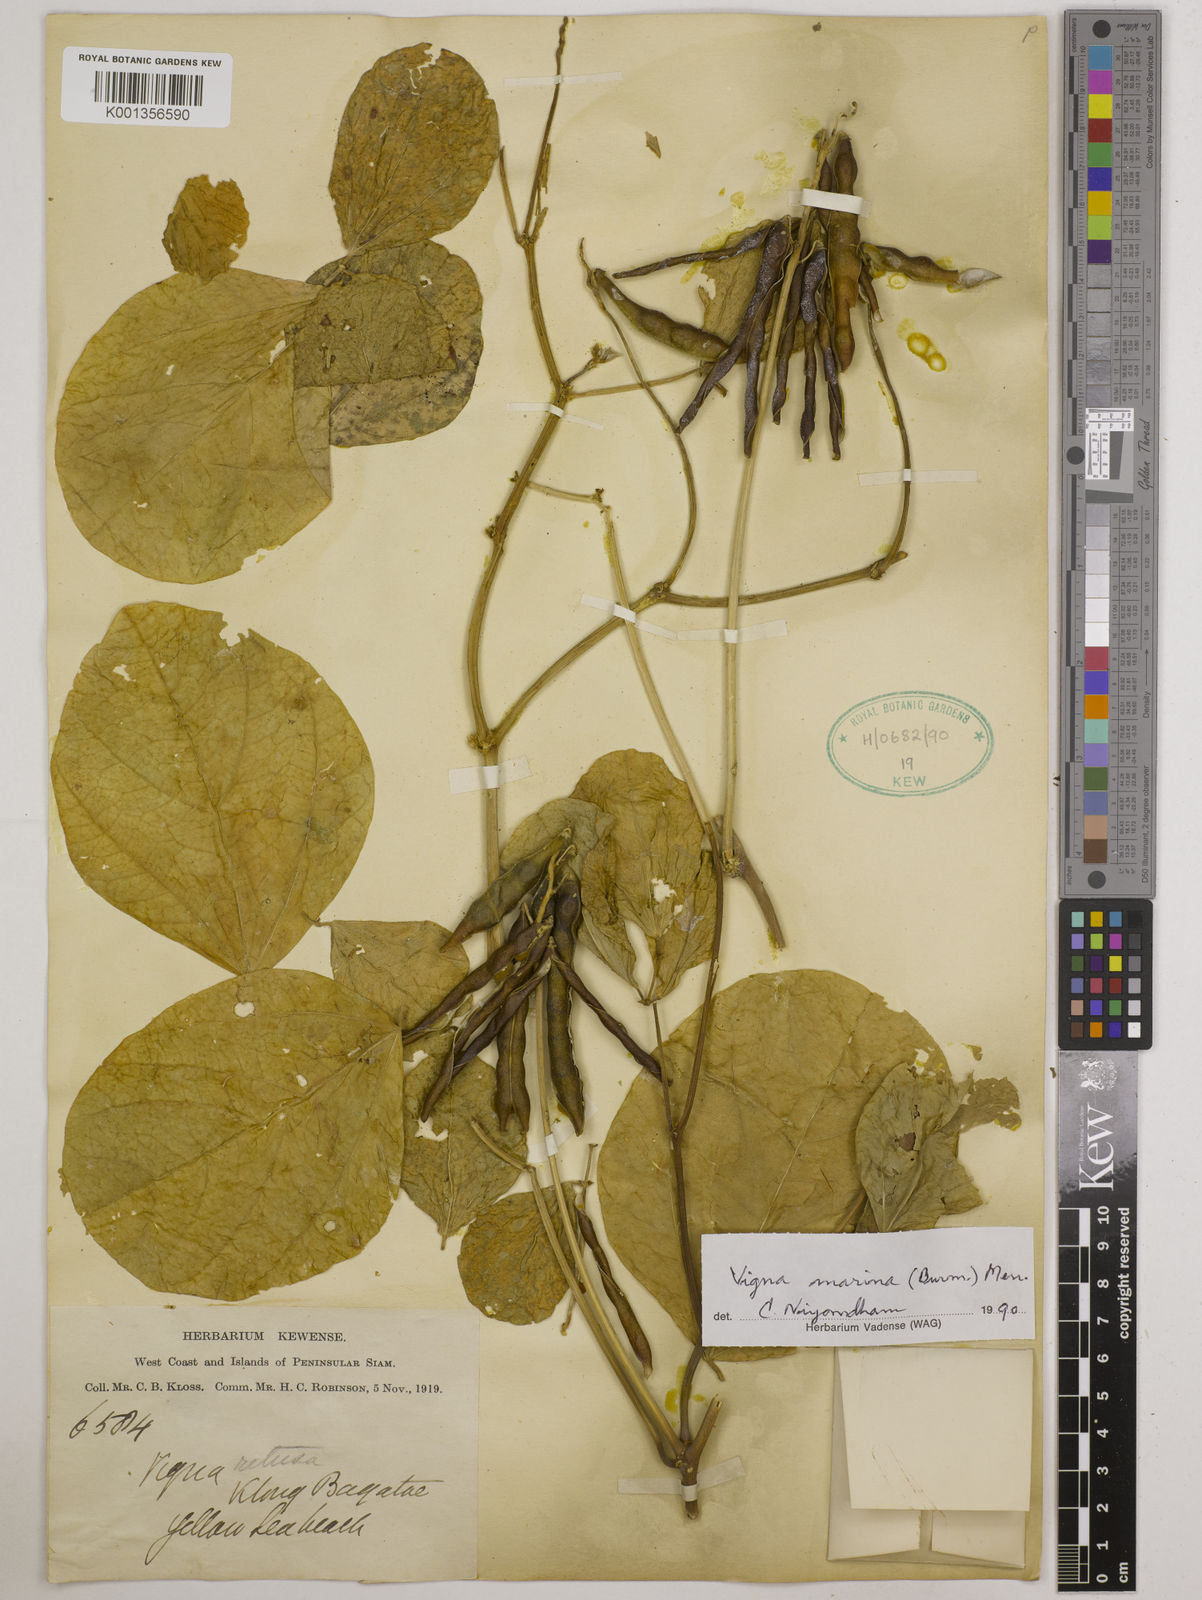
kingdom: Plantae
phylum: Tracheophyta
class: Magnoliopsida
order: Fabales
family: Fabaceae
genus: Vigna
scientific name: Vigna marina
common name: Dune-bean
